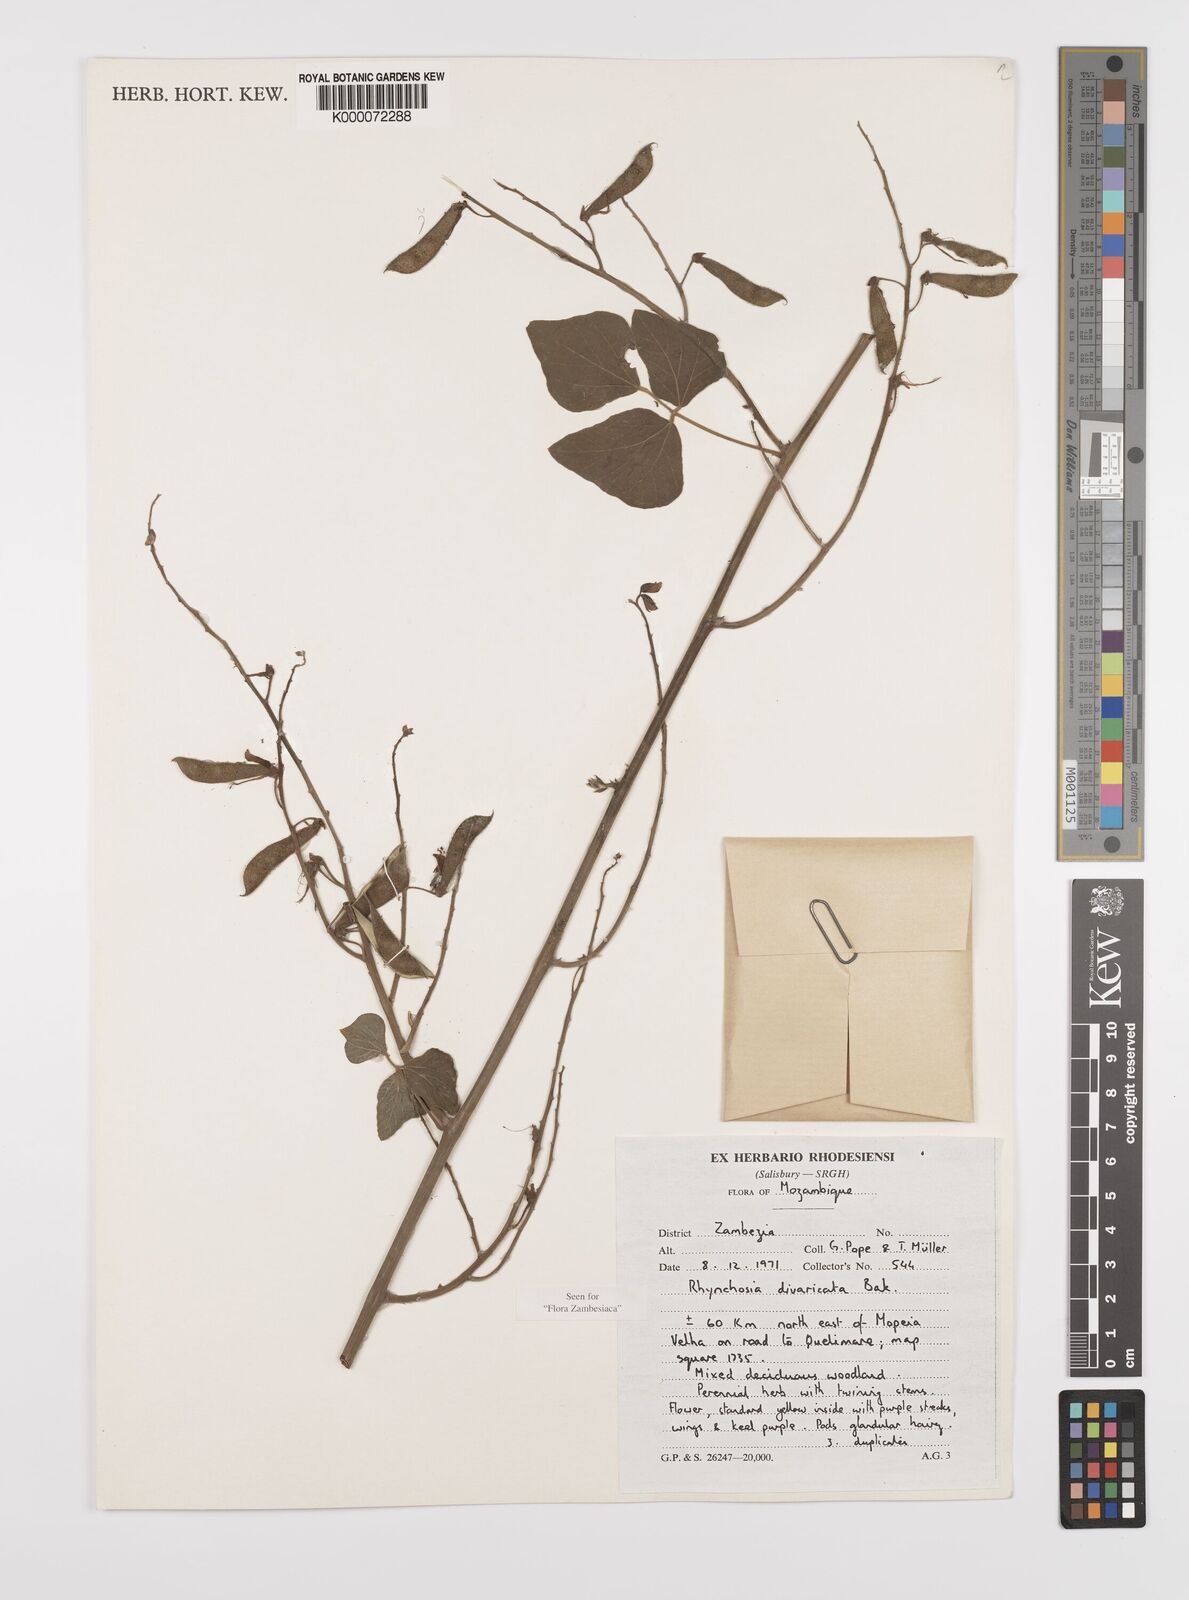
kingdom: Plantae
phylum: Tracheophyta
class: Magnoliopsida
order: Fabales
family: Fabaceae
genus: Rhynchosia
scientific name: Rhynchosia divaricata
